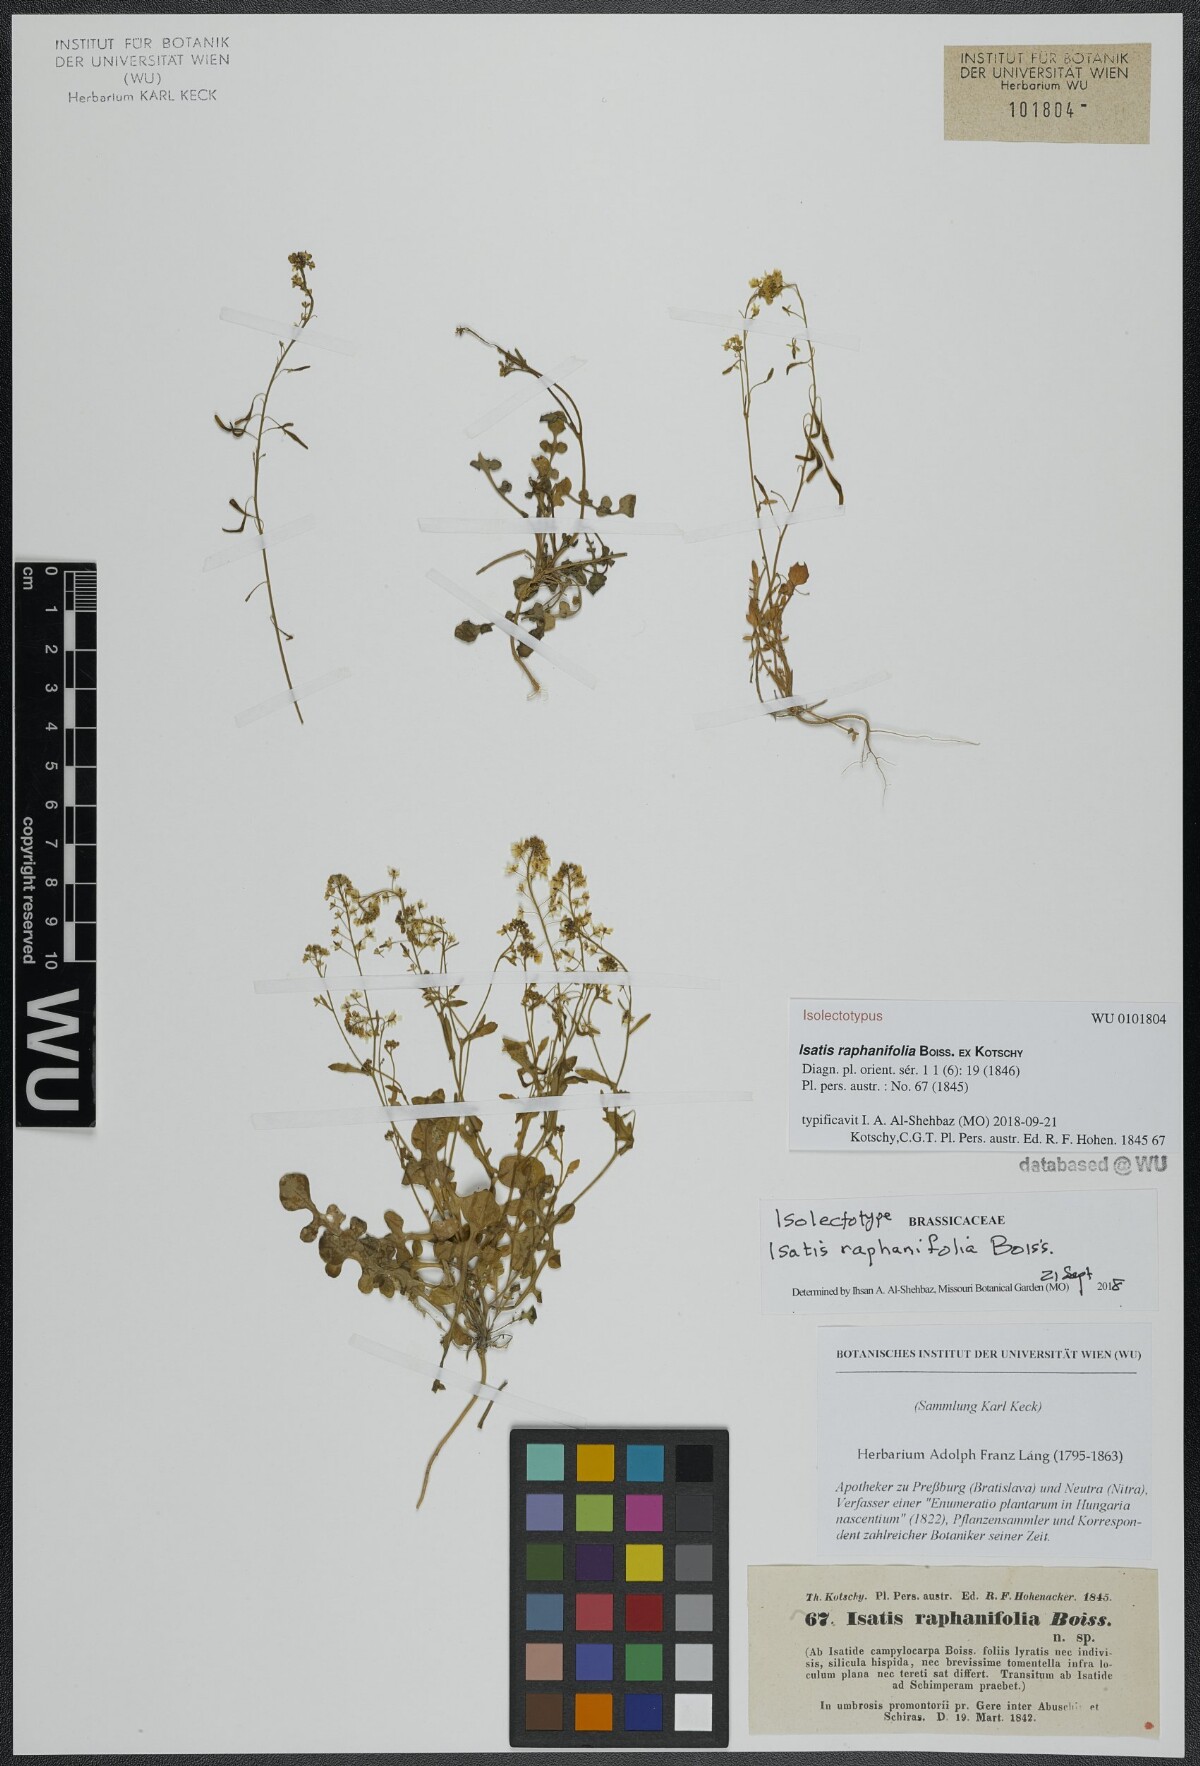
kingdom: Plantae
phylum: Tracheophyta
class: Magnoliopsida
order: Brassicales
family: Brassicaceae
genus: Isatis
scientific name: Isatis raphanifolia
